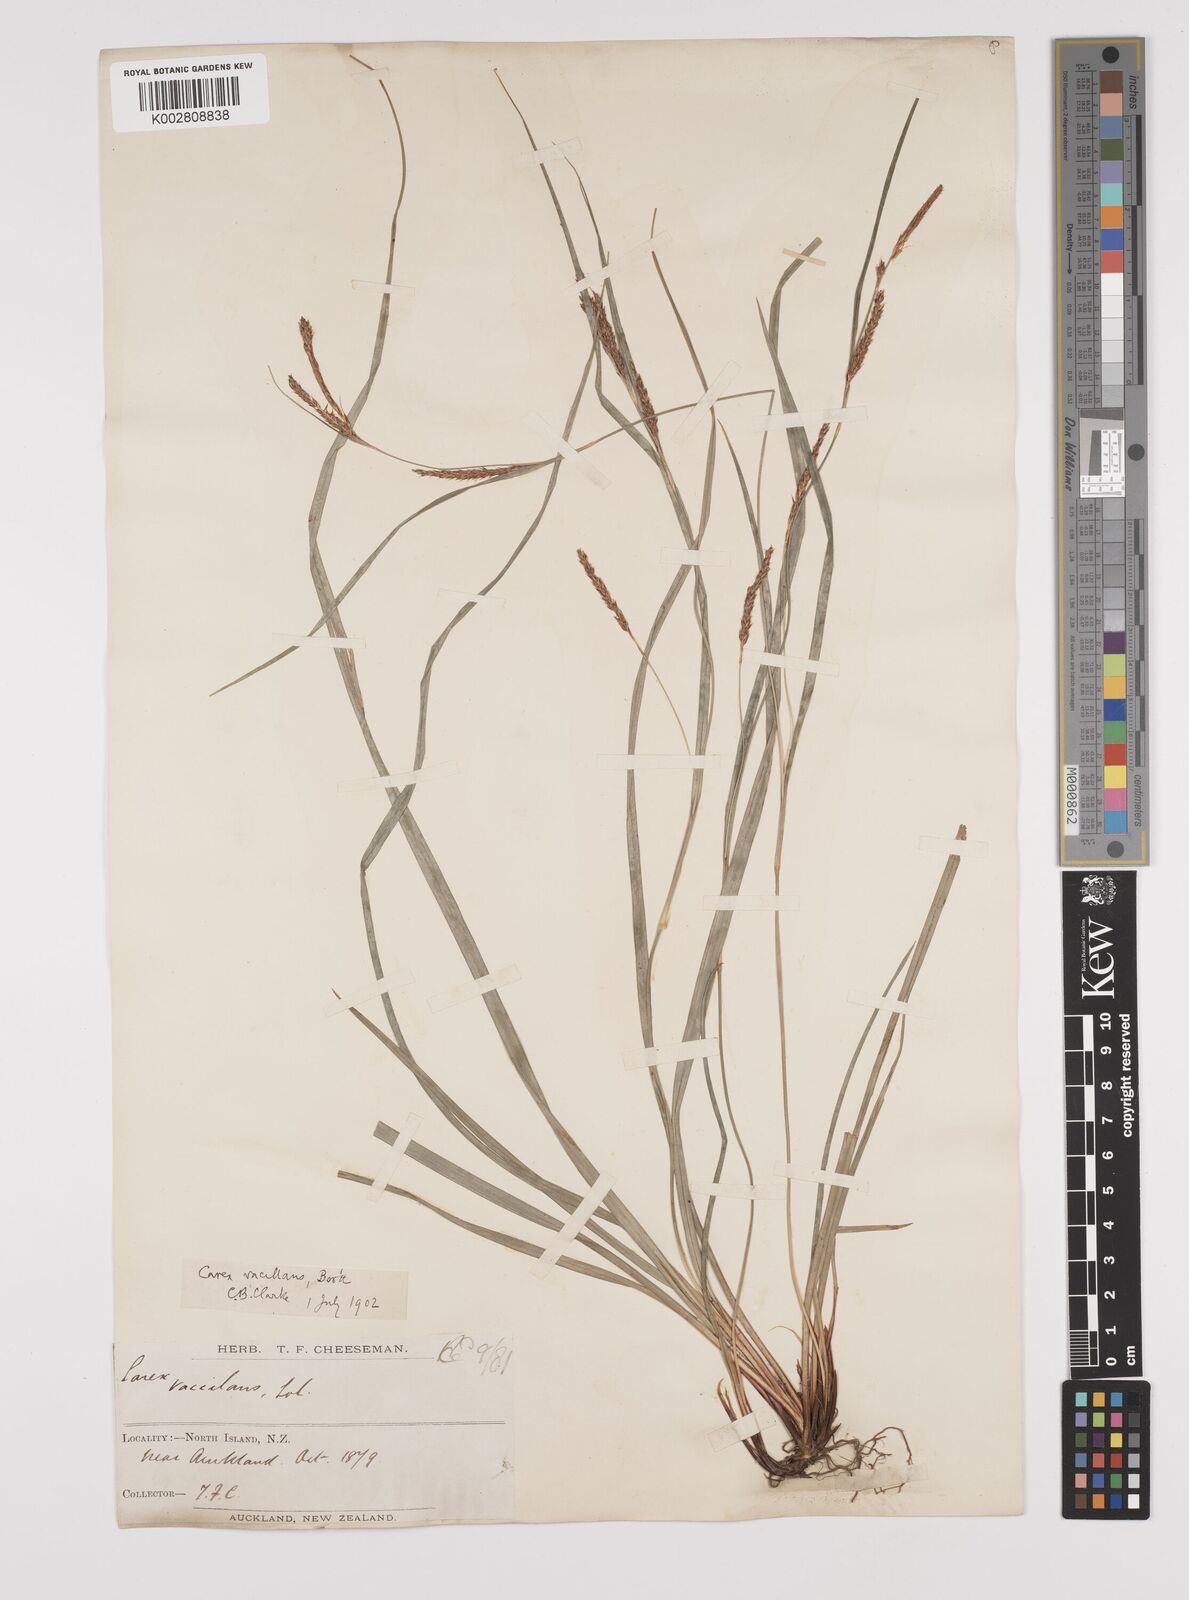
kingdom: Plantae
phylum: Tracheophyta
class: Liliopsida
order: Poales
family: Cyperaceae
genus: Carex
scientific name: Carex spinirostris
